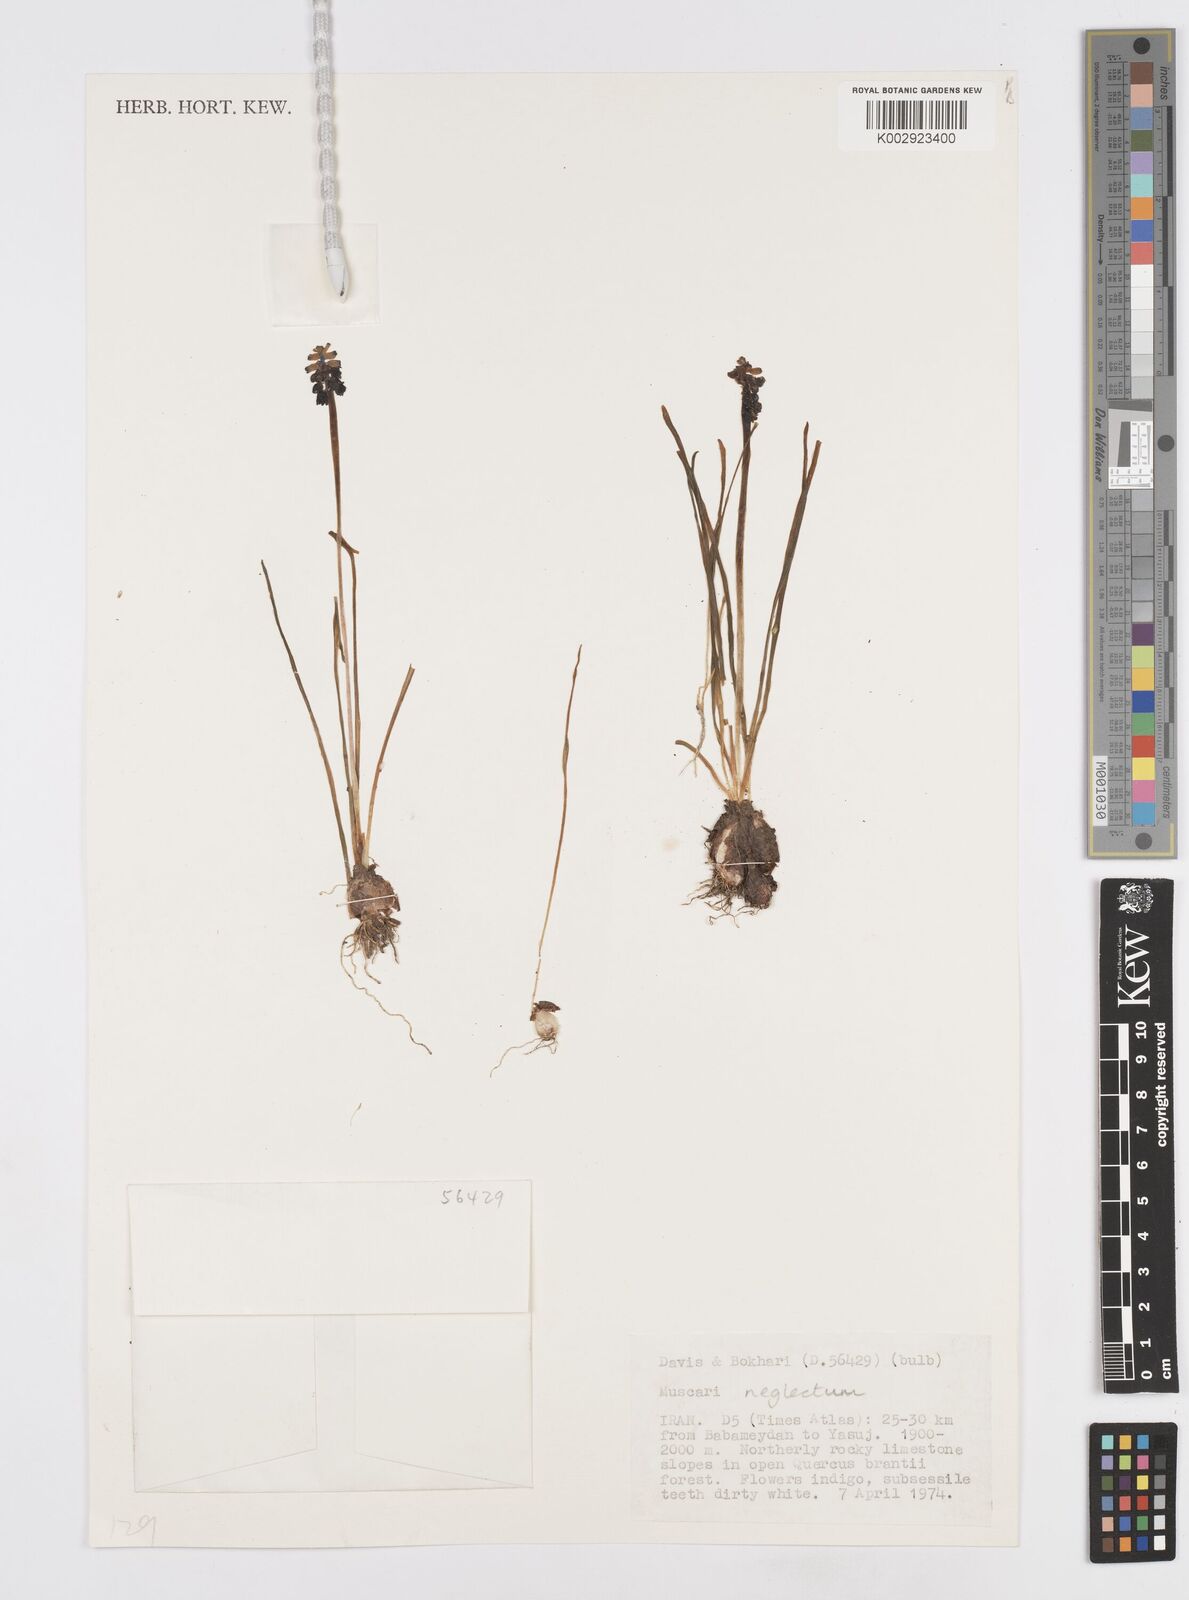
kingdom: Plantae
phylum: Tracheophyta
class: Liliopsida
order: Asparagales
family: Asparagaceae
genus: Muscari
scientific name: Muscari neglectum
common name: Grape-hyacinth
